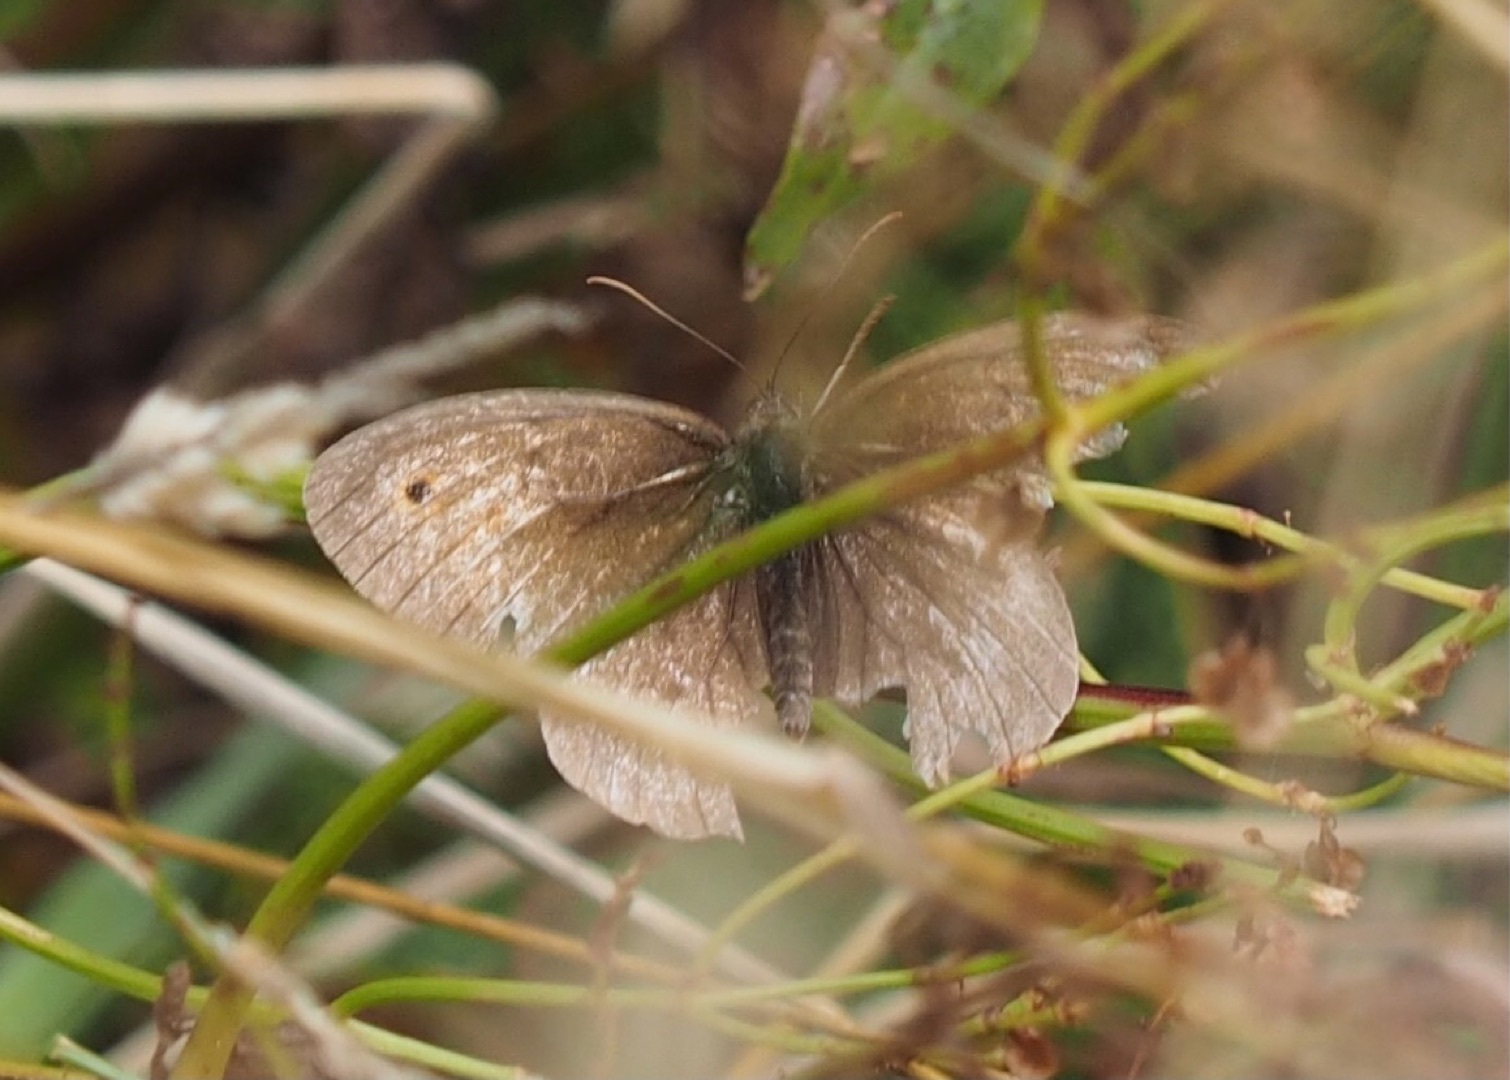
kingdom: Animalia
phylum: Arthropoda
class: Insecta
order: Lepidoptera
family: Nymphalidae
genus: Maniola
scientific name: Maniola jurtina
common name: Græsrandøje
